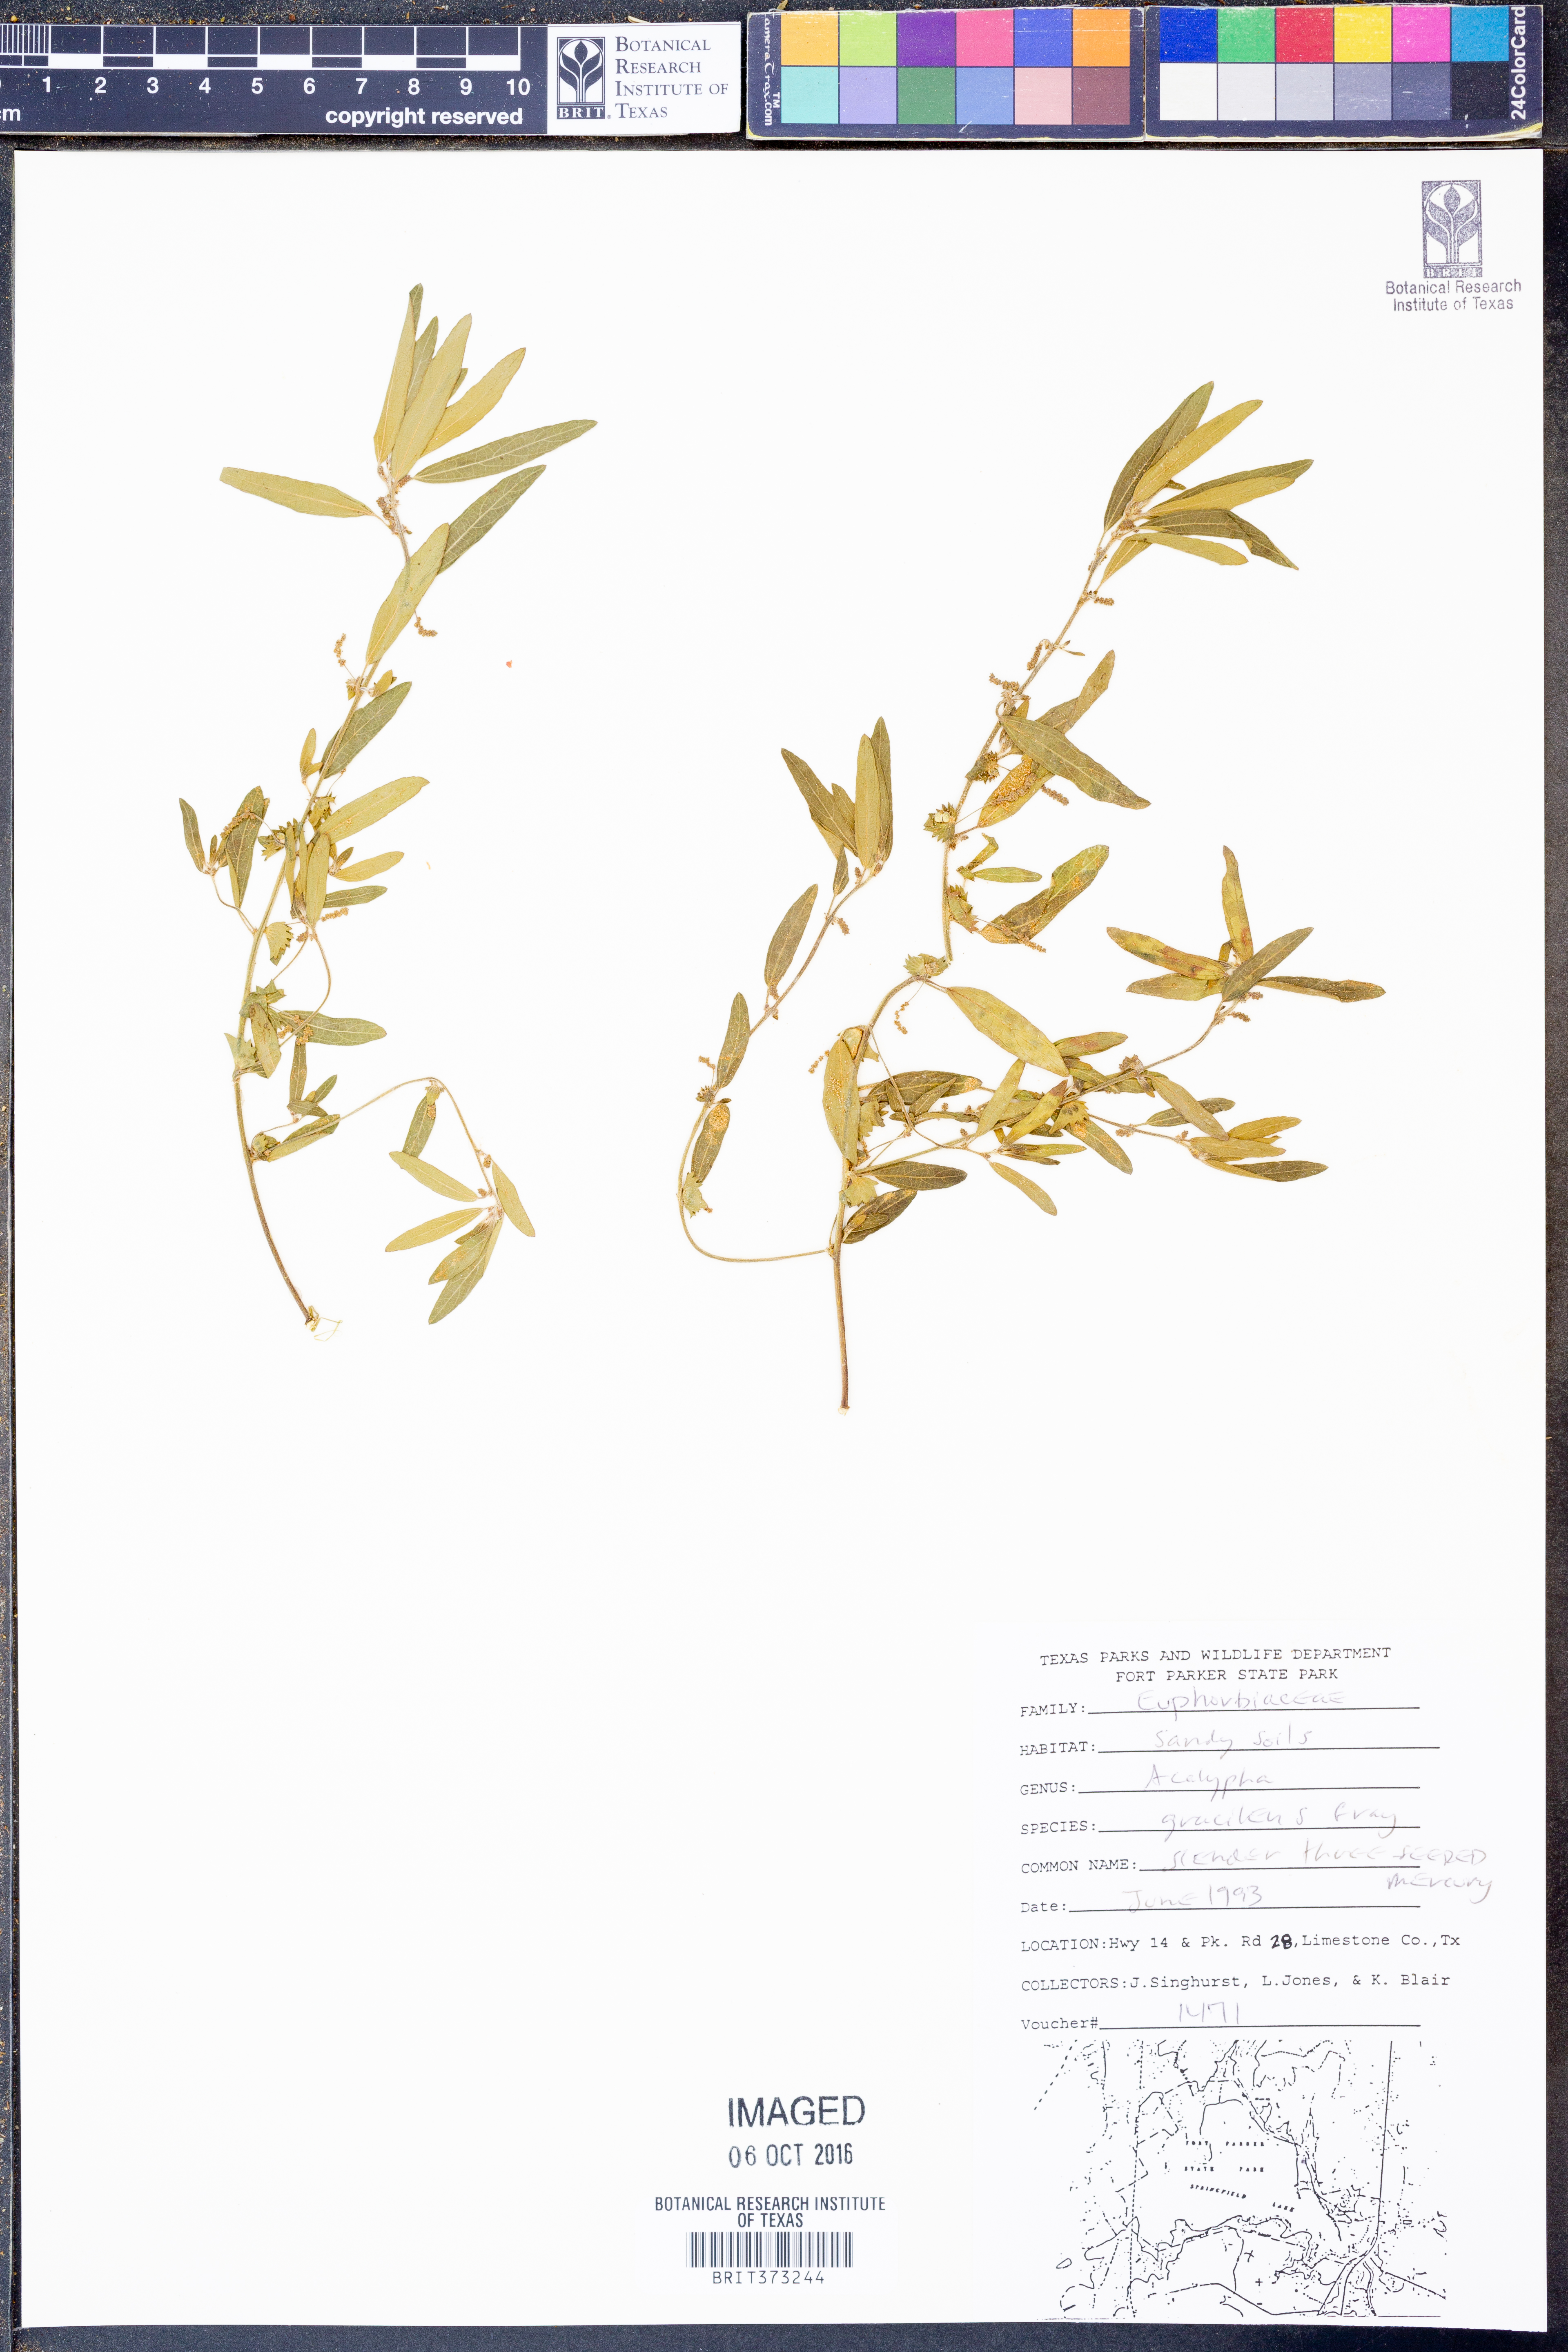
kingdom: Plantae
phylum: Tracheophyta
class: Magnoliopsida
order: Malpighiales
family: Euphorbiaceae
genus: Acalypha
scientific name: Acalypha gracilens
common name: Slender three-seeded mercury
